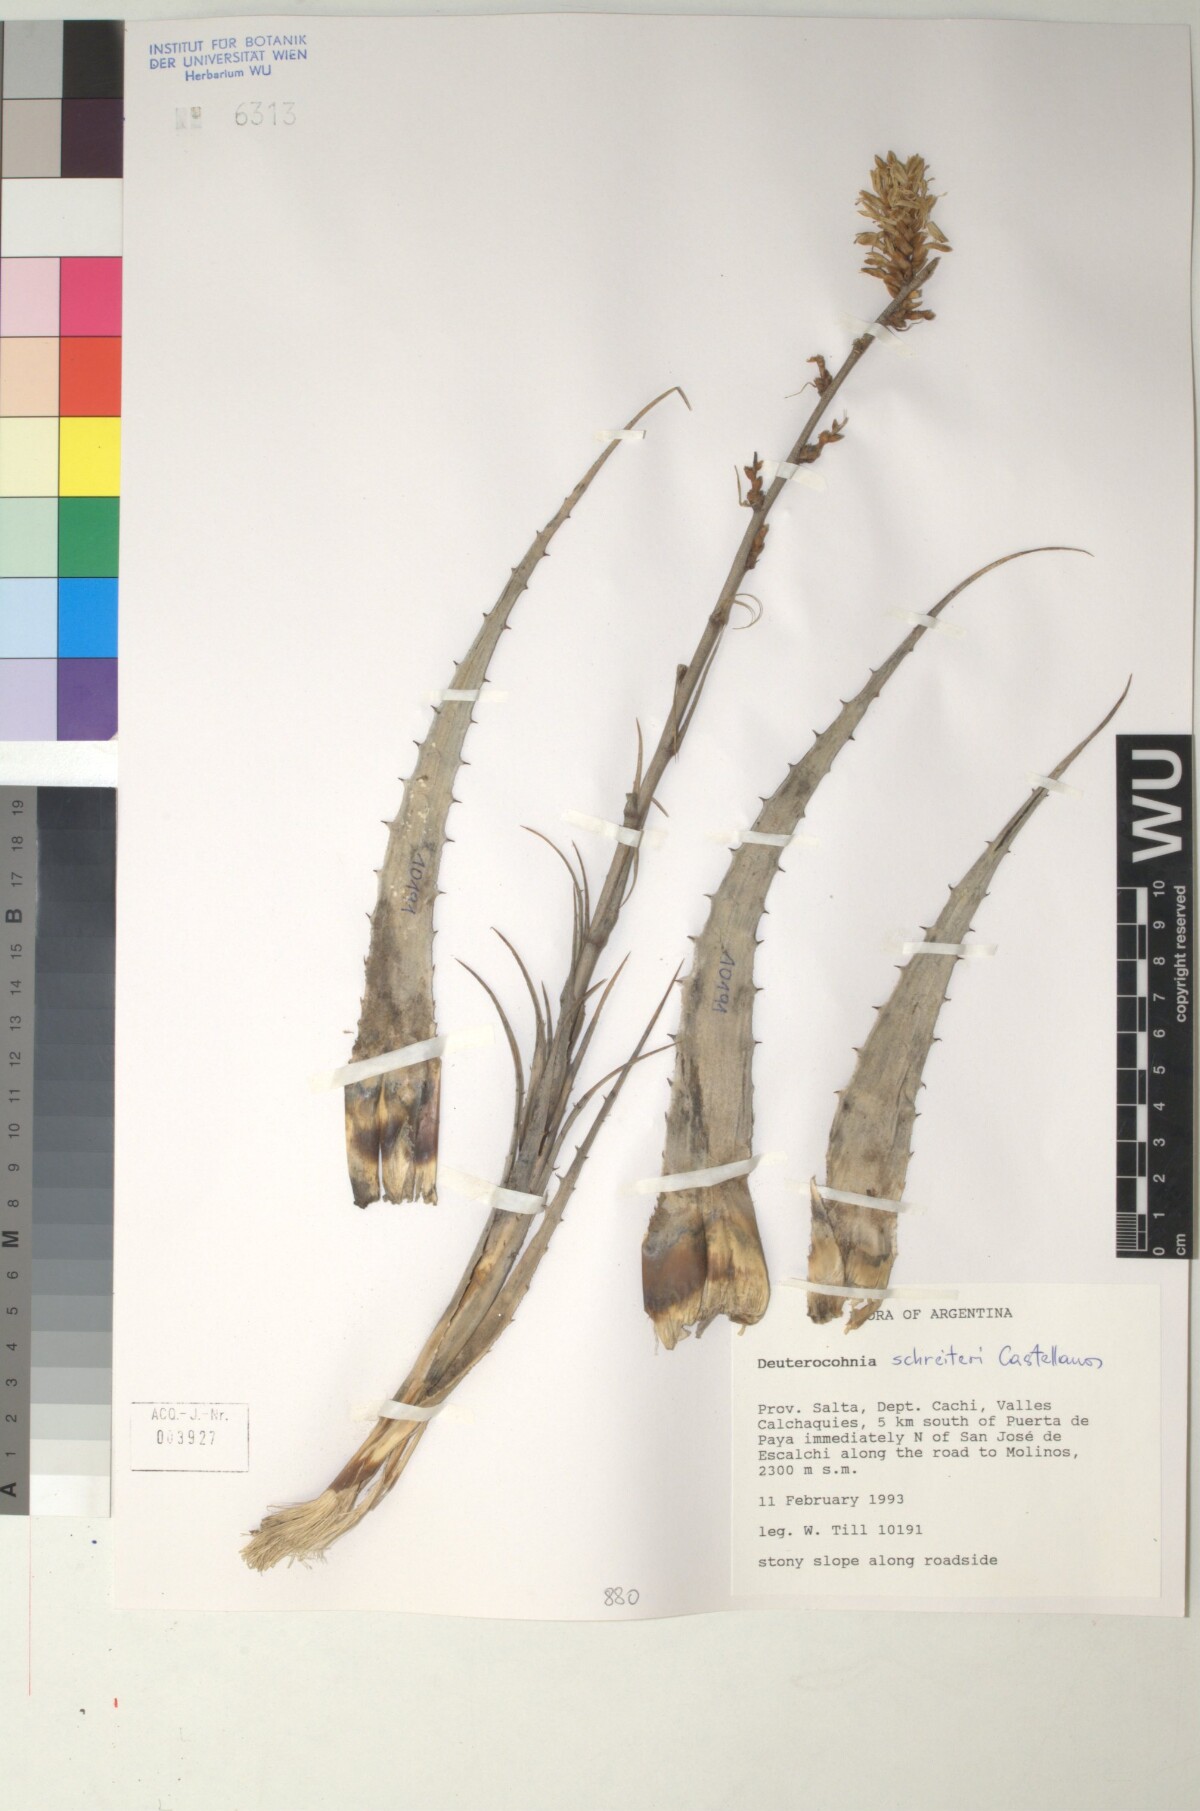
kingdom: Plantae
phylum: Tracheophyta
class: Liliopsida
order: Poales
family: Bromeliaceae
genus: Deuterocohnia
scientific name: Deuterocohnia schreiteri
